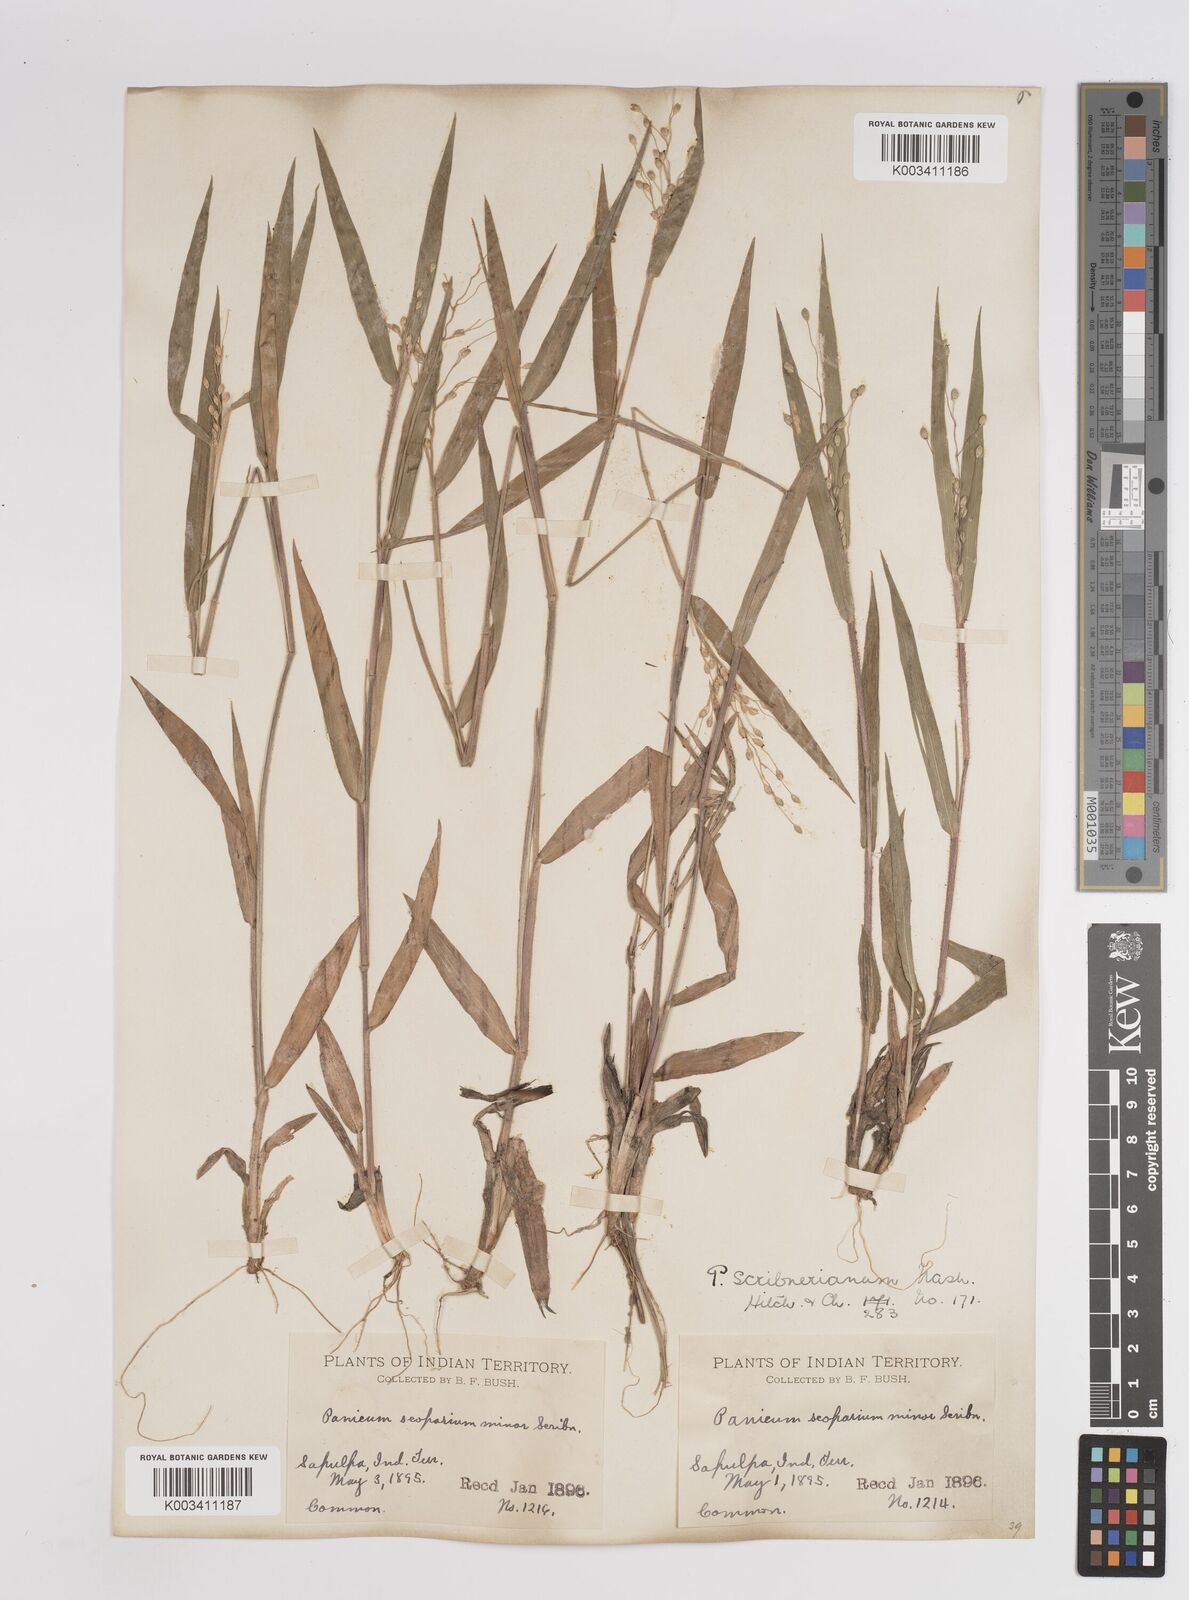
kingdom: Plantae
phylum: Tracheophyta
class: Liliopsida
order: Poales
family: Poaceae
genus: Dichanthelium
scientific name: Dichanthelium oligosanthes
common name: Few-anther obscuregrass
